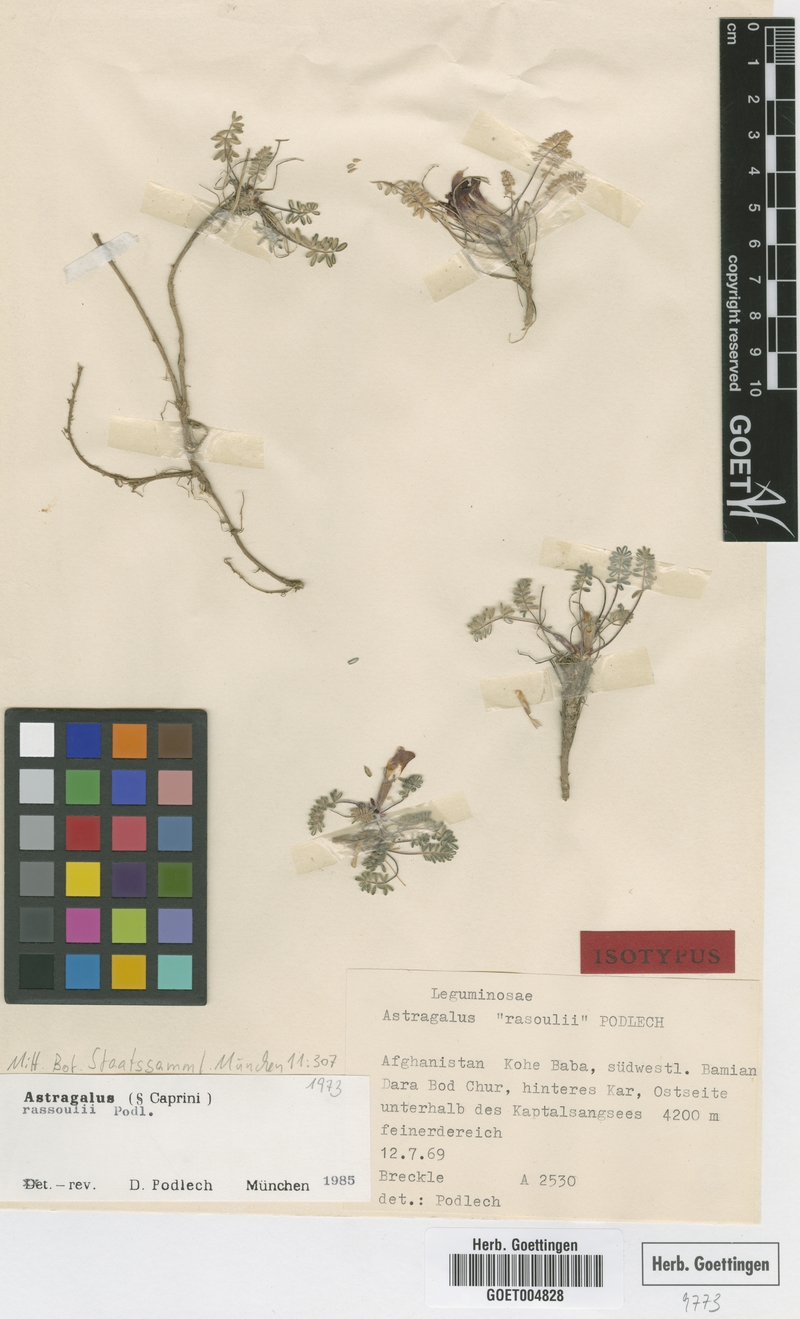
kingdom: Plantae
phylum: Tracheophyta
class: Magnoliopsida
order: Fabales
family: Fabaceae
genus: Astragalus
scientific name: Astragalus rassoulii
